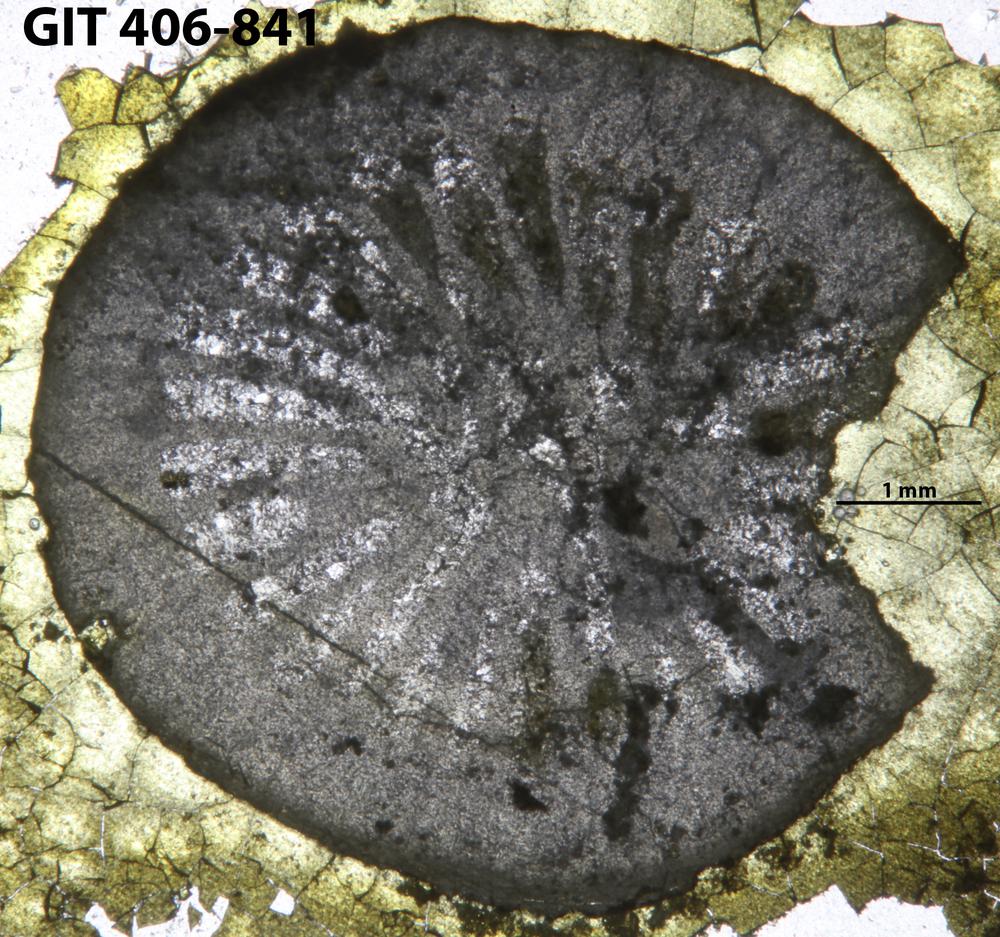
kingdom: Animalia
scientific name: Animalia
